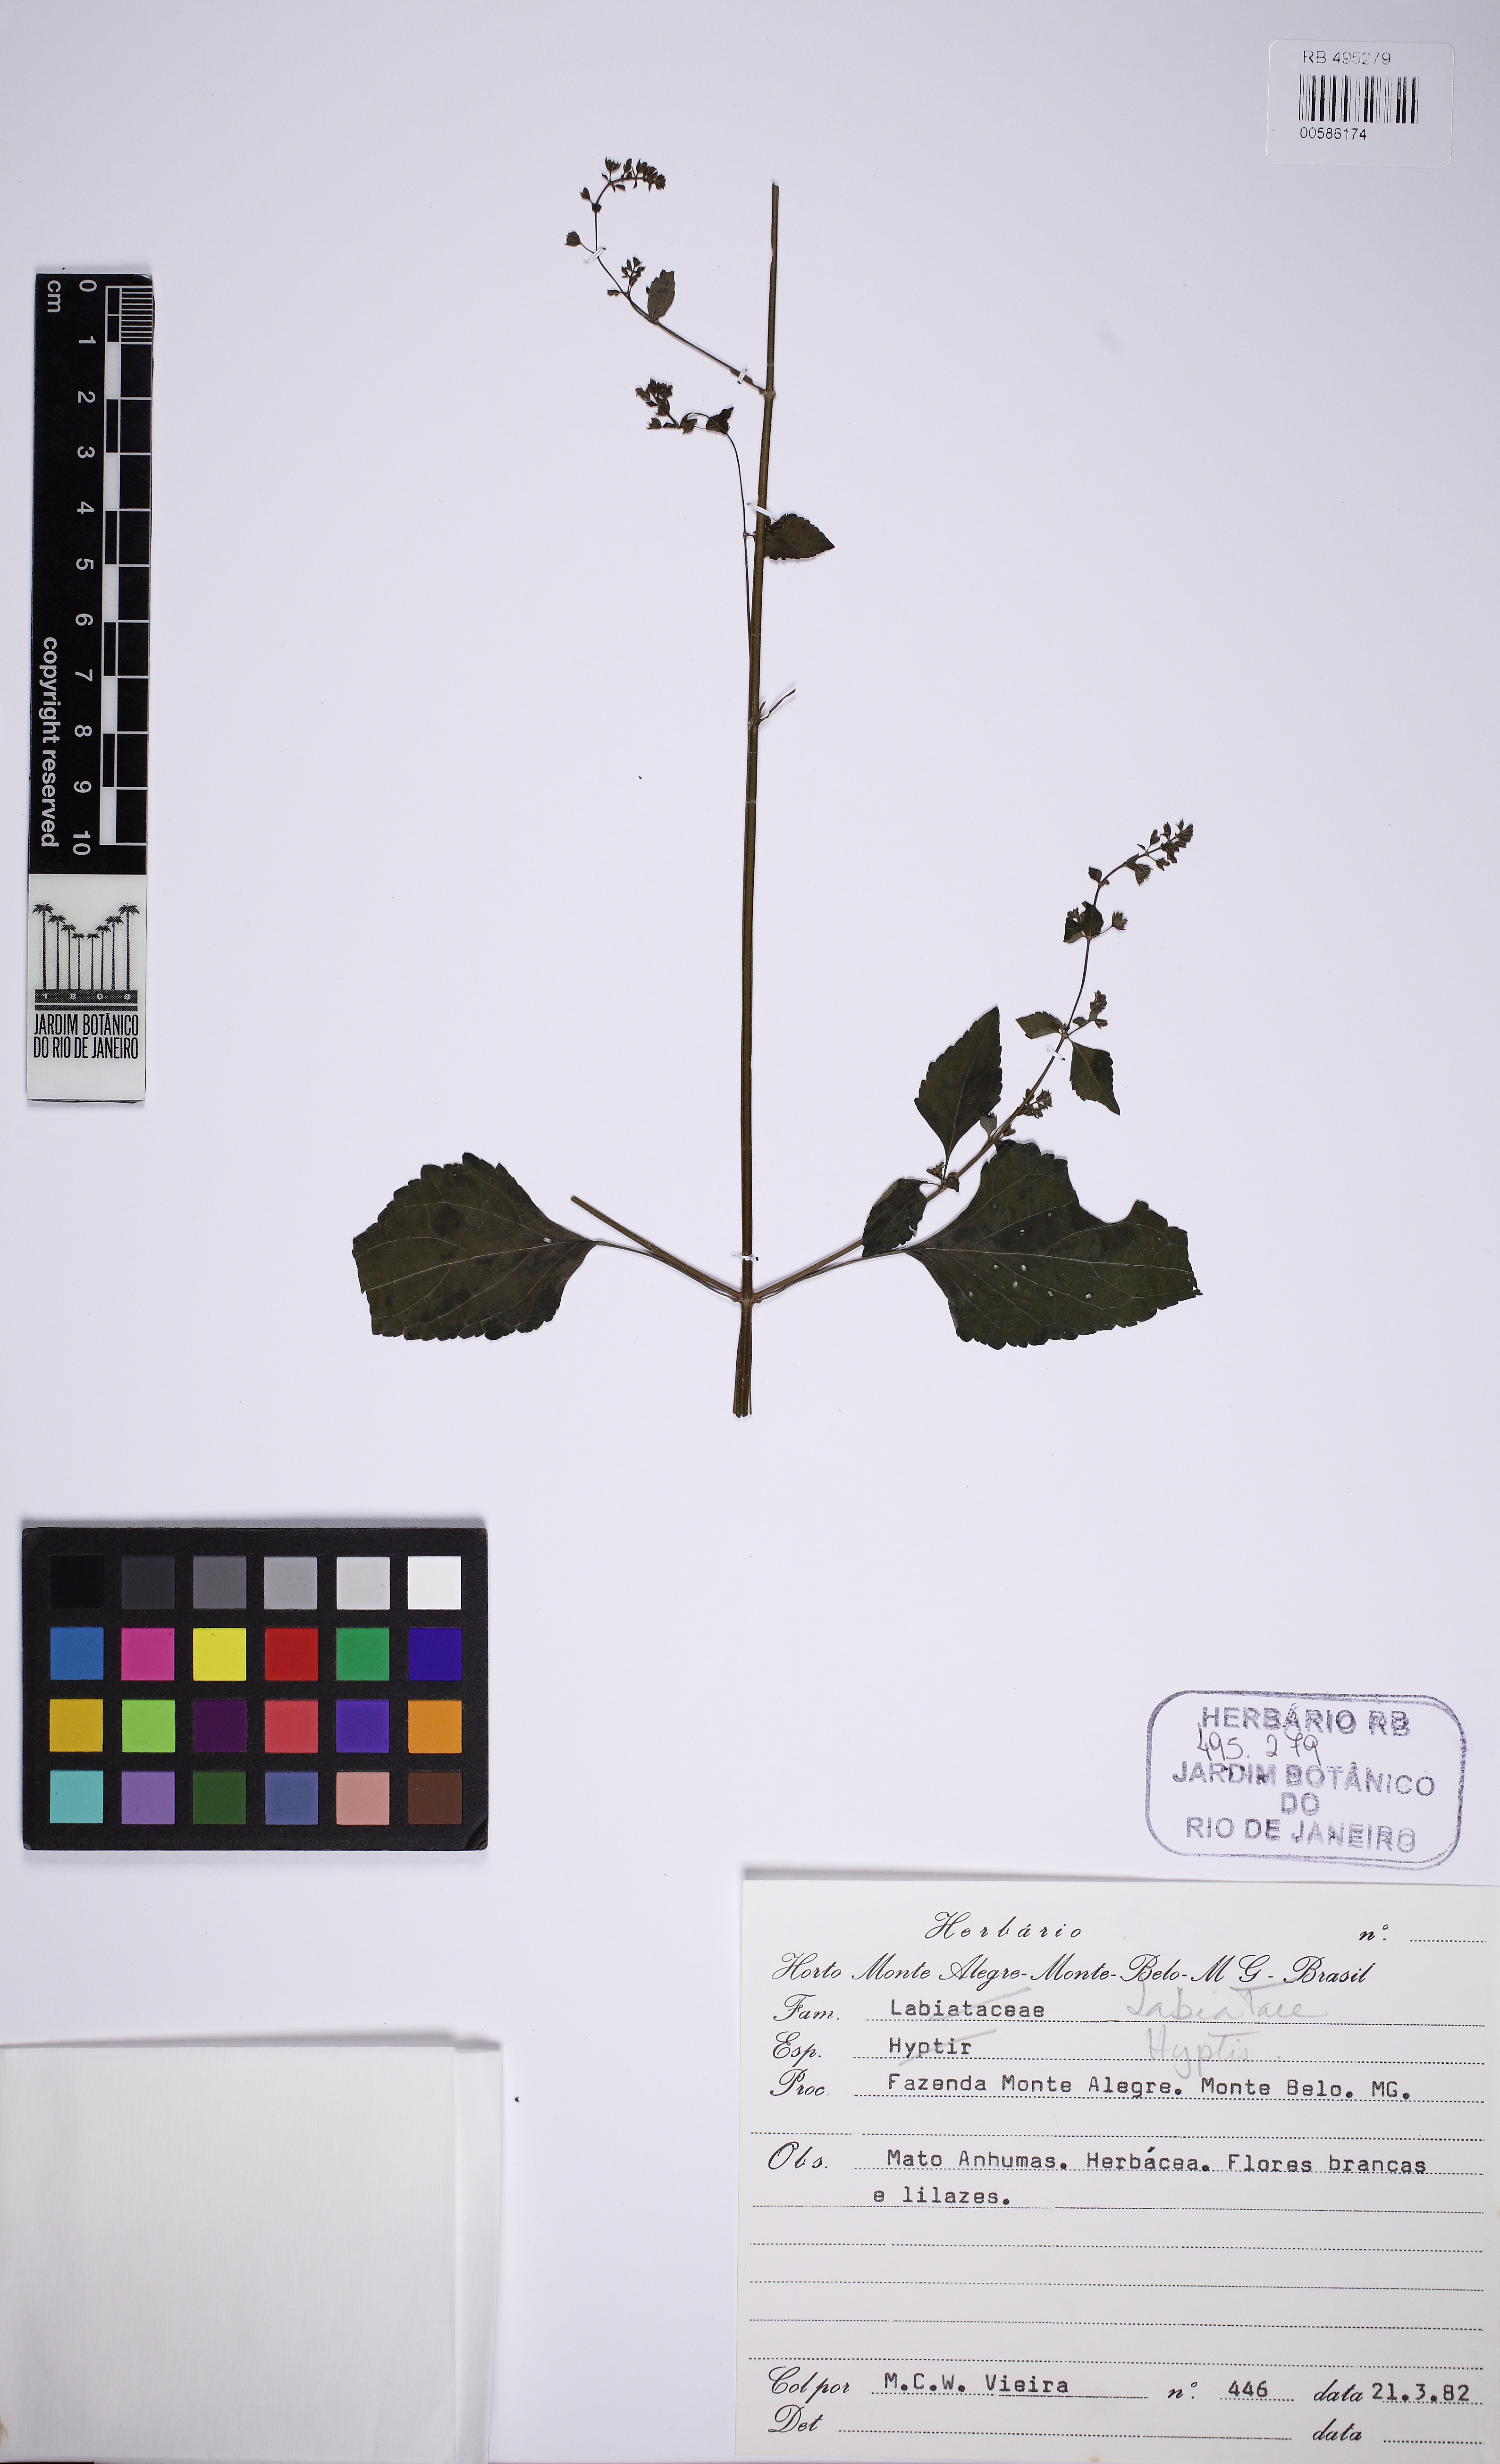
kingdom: Plantae
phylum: Tracheophyta
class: Magnoliopsida
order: Lamiales
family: Lamiaceae
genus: Hyptis
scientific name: Hyptis
